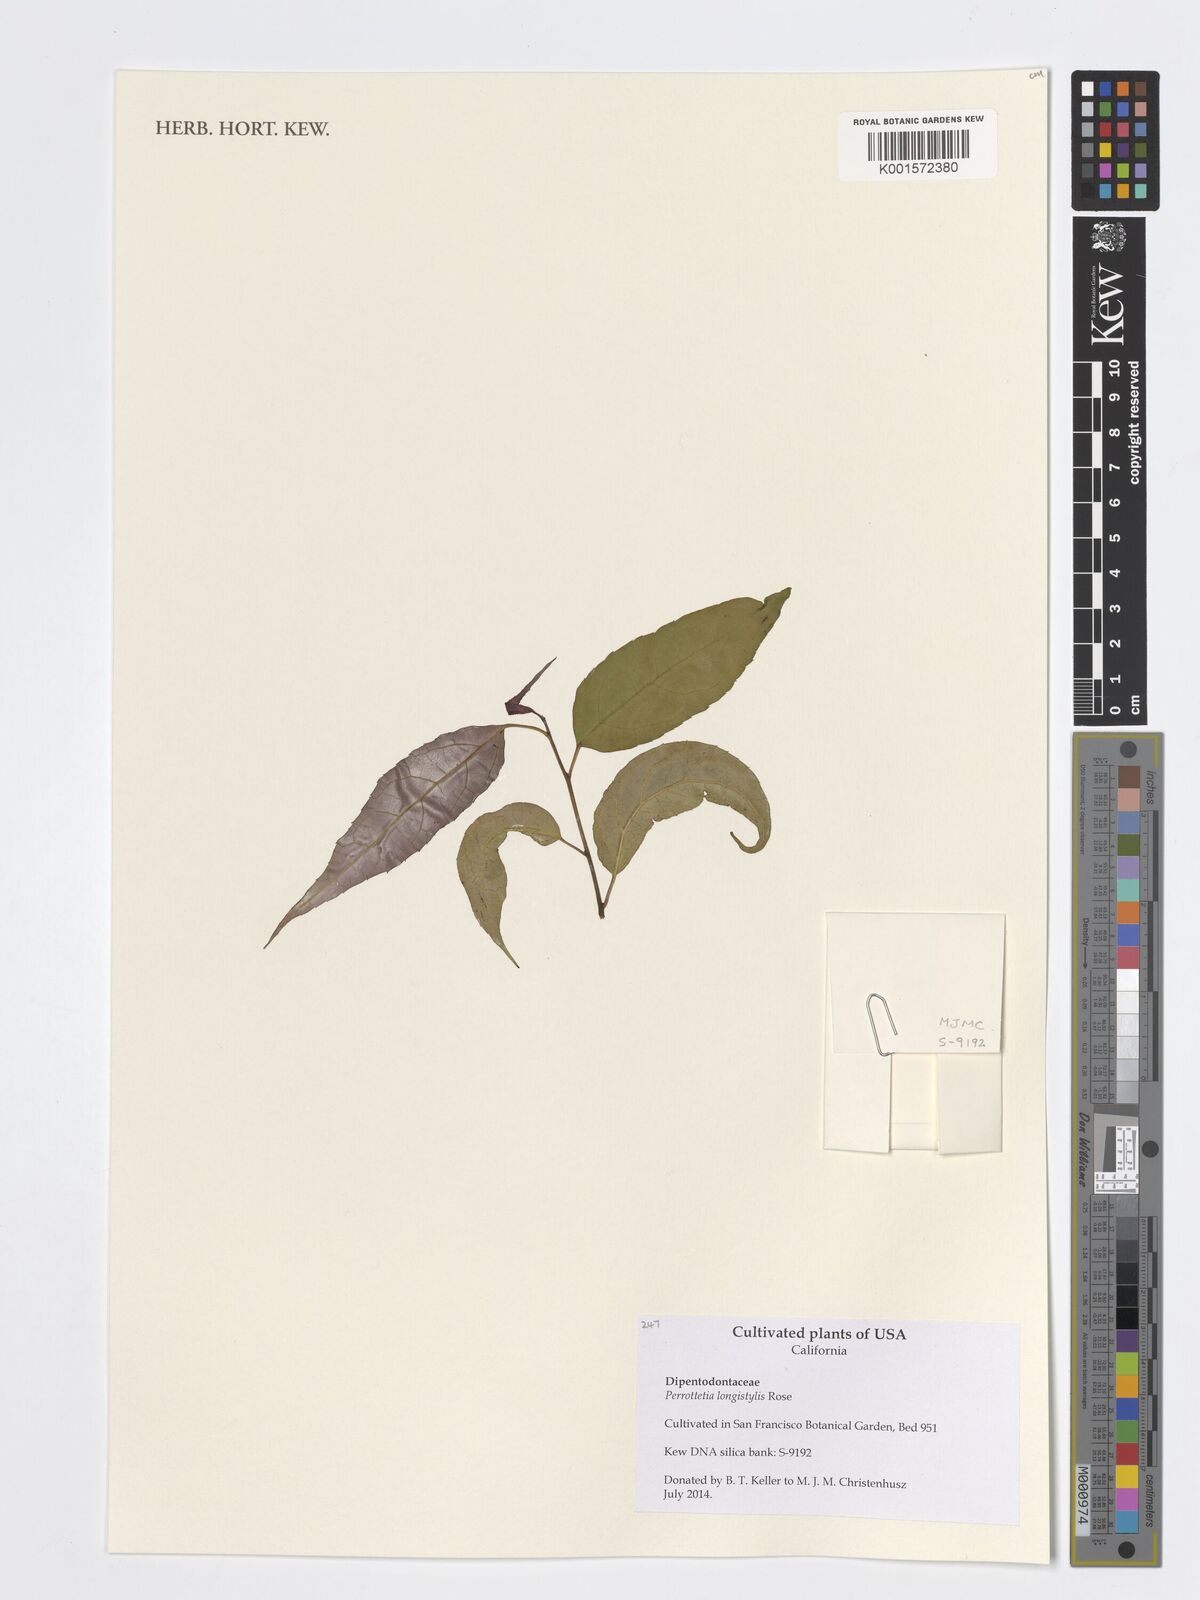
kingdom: Plantae
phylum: Tracheophyta
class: Magnoliopsida
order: Huerteales
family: Dipentodontaceae
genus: Perrottetia
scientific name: Perrottetia longistylis
